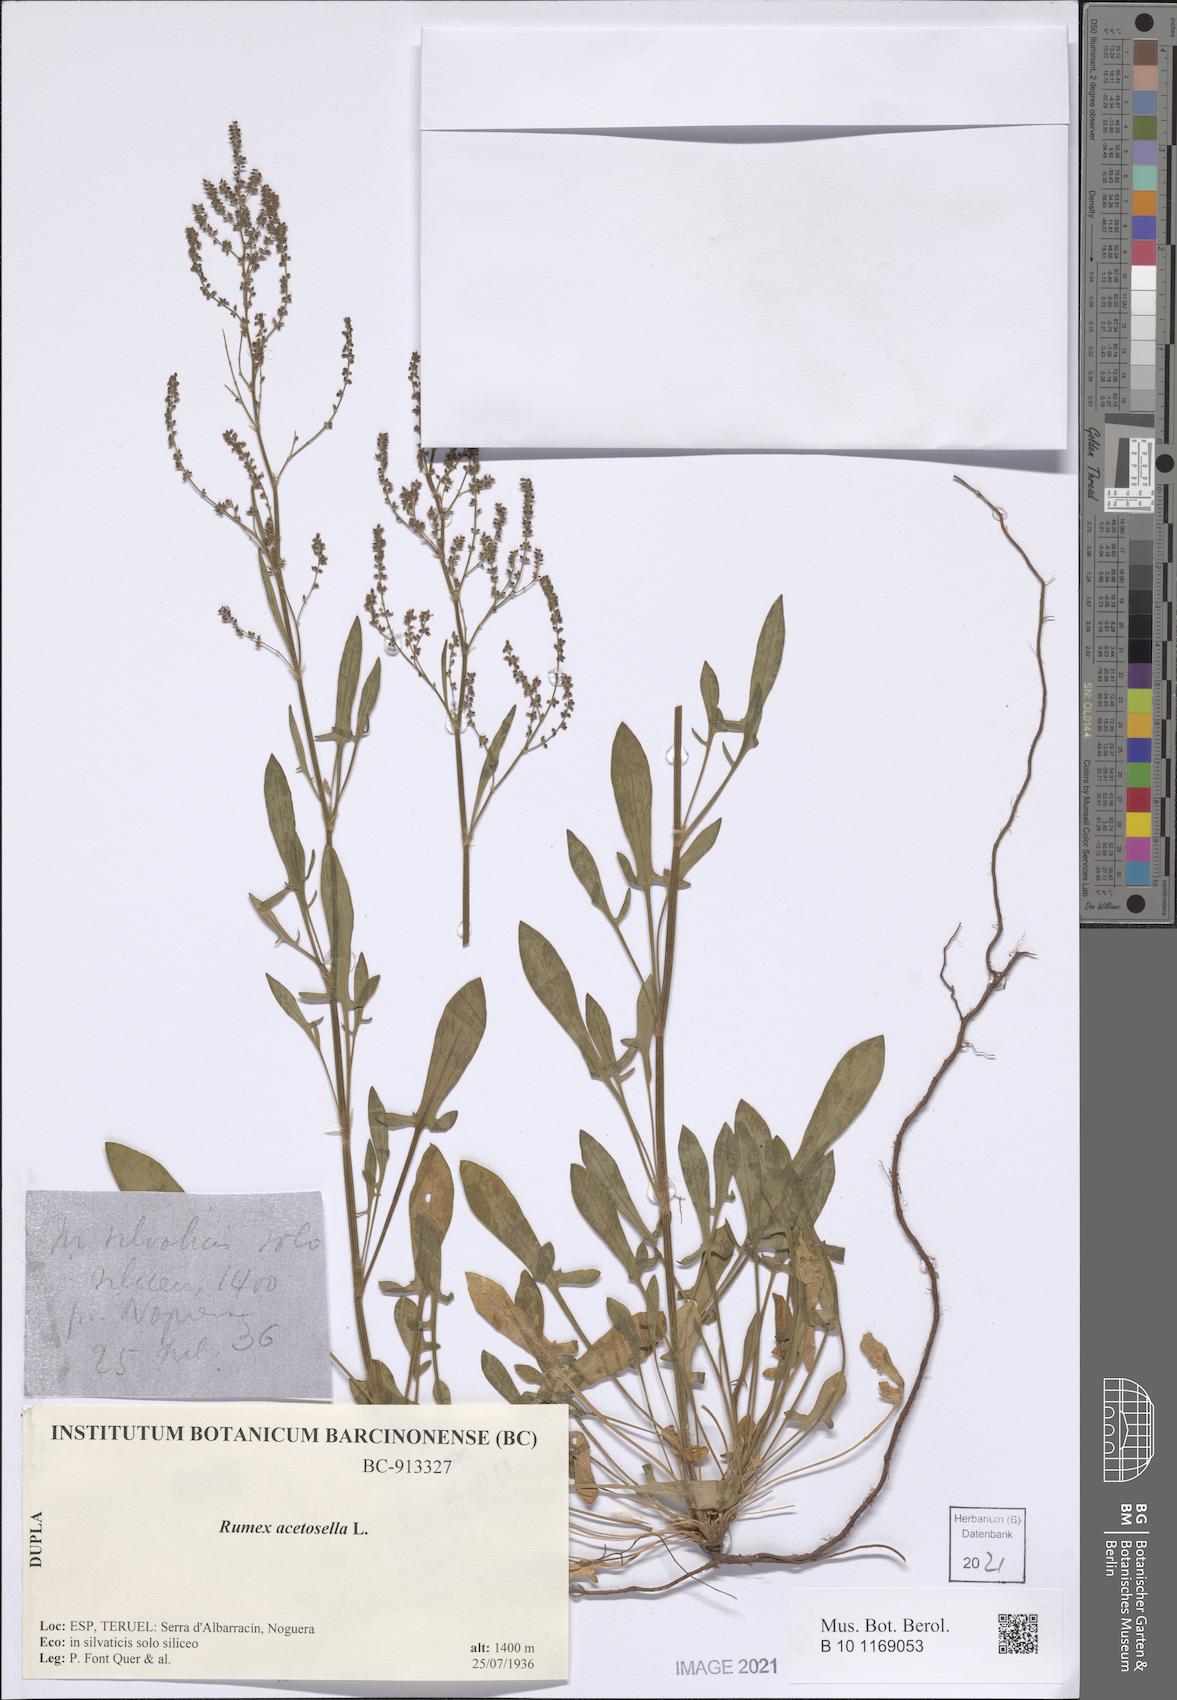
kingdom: Plantae
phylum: Tracheophyta
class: Magnoliopsida
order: Caryophyllales
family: Polygonaceae
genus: Rumex
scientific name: Rumex acetosella
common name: Common sheep sorrel
